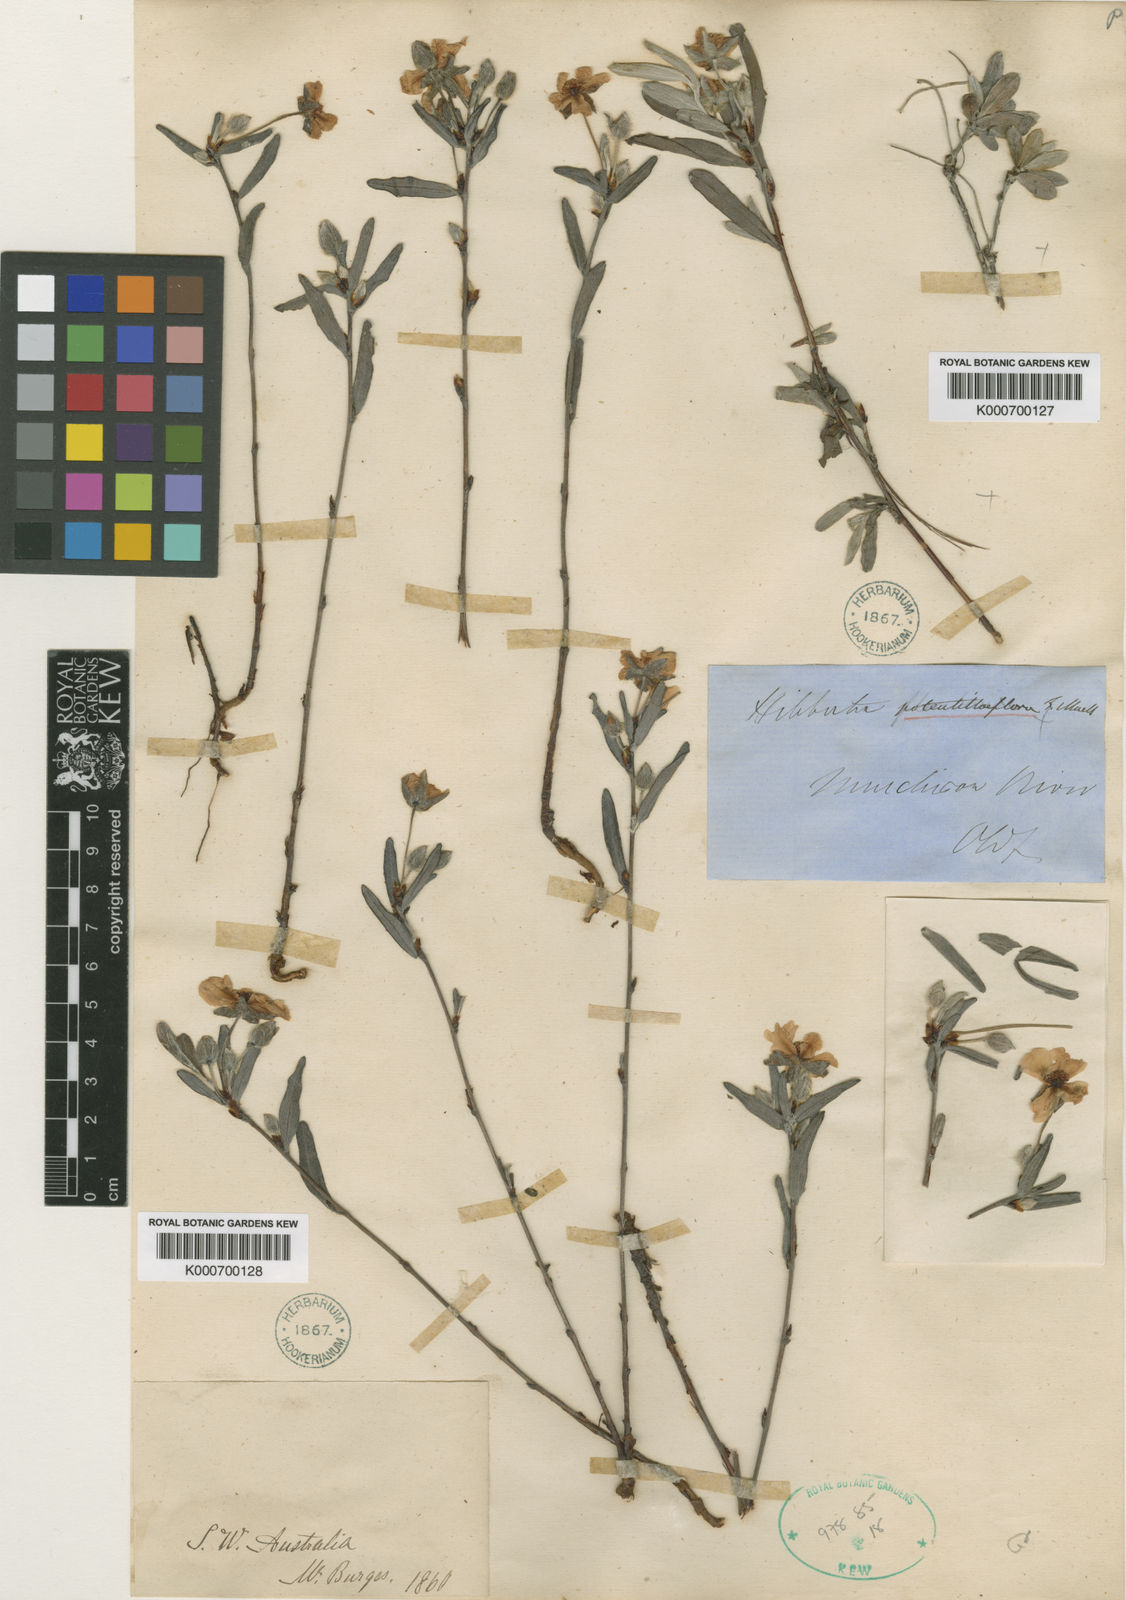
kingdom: Plantae
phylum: Tracheophyta
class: Magnoliopsida
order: Dilleniales
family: Dilleniaceae
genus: Hibbertia
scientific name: Hibbertia potentilliflora
